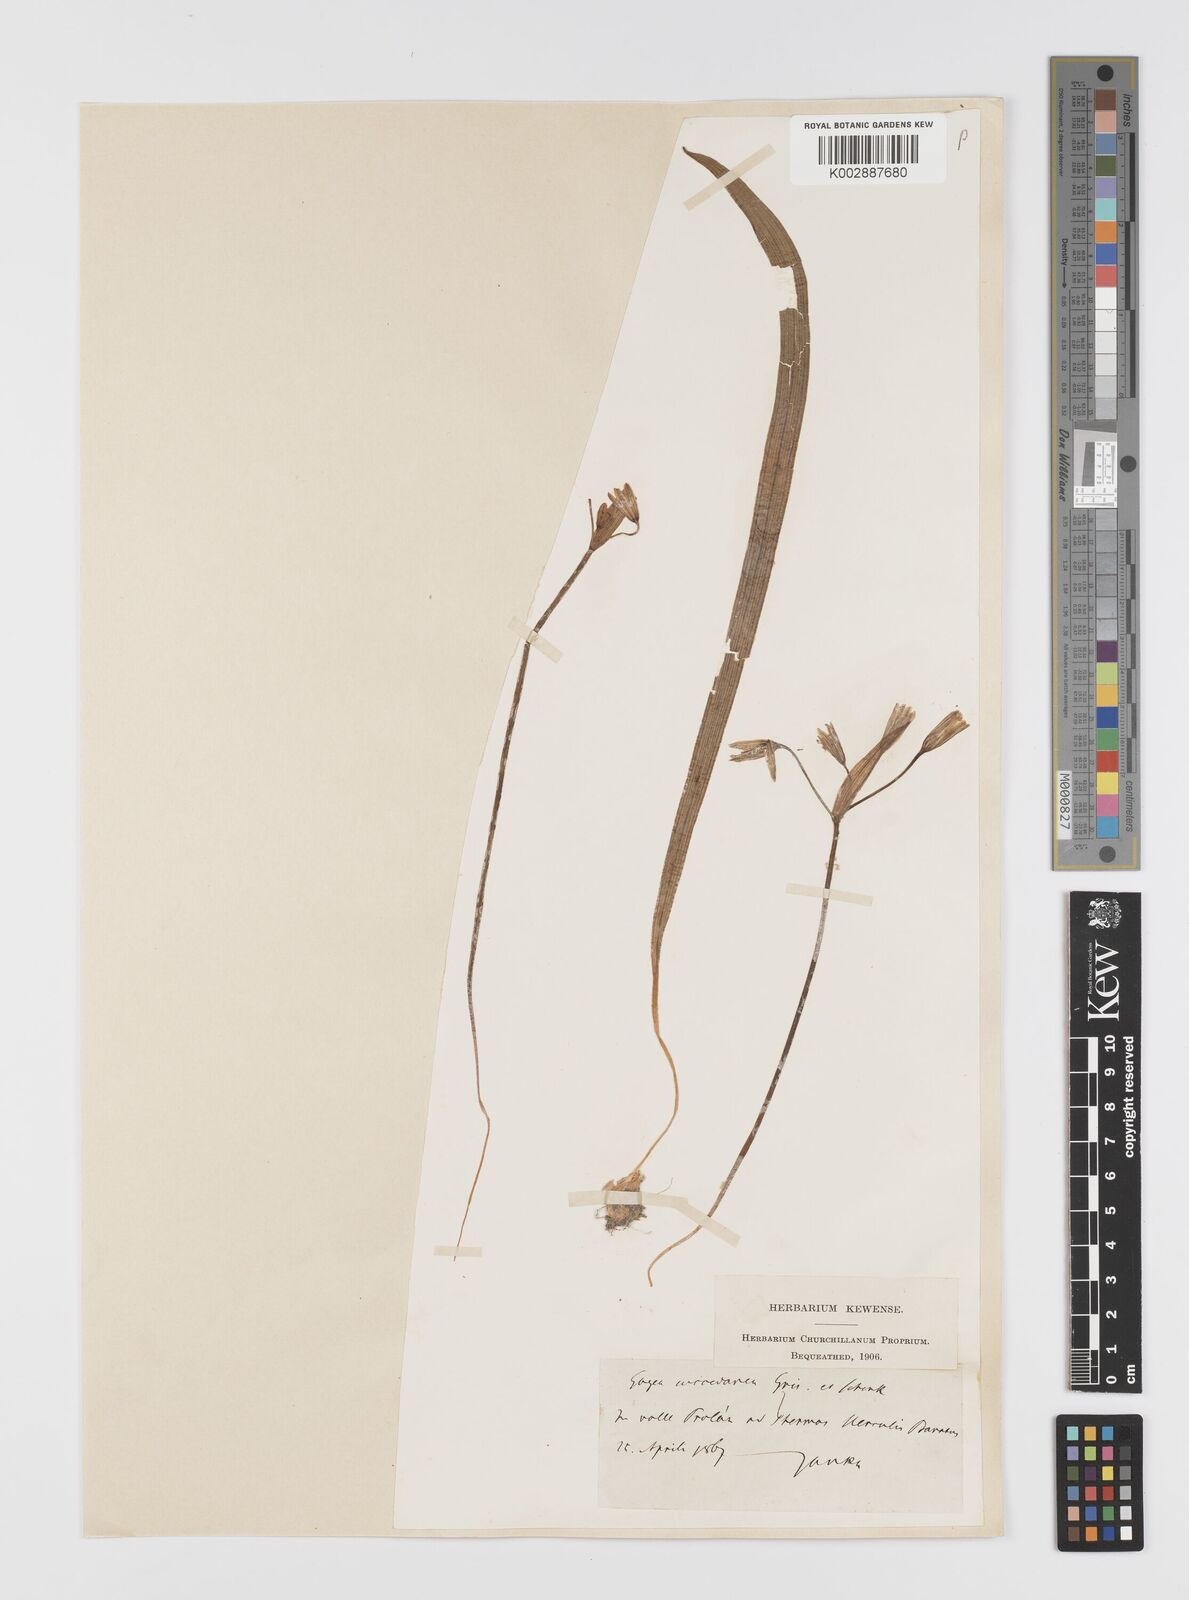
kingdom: Plantae
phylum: Tracheophyta
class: Liliopsida
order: Liliales
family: Liliaceae
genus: Gagea
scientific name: Gagea
